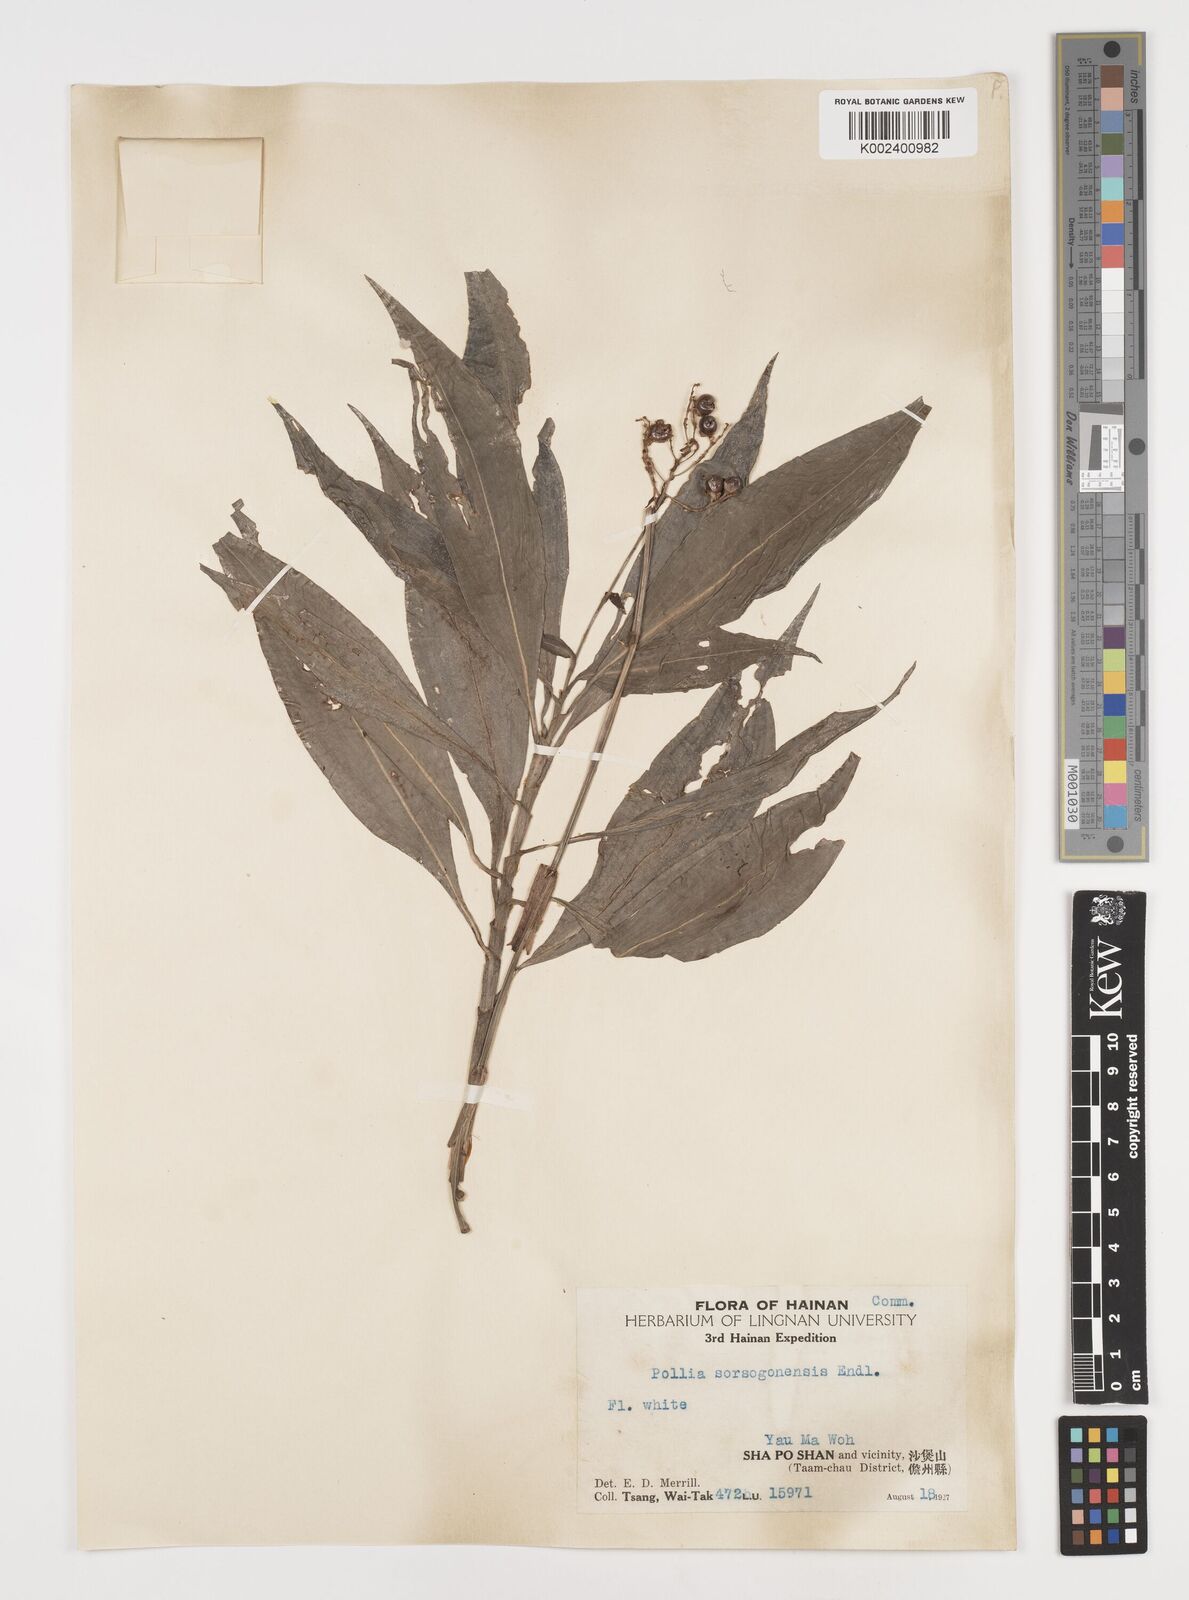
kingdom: Plantae
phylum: Tracheophyta
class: Liliopsida
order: Commelinales
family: Commelinaceae
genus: Pollia
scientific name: Pollia secundiflora
